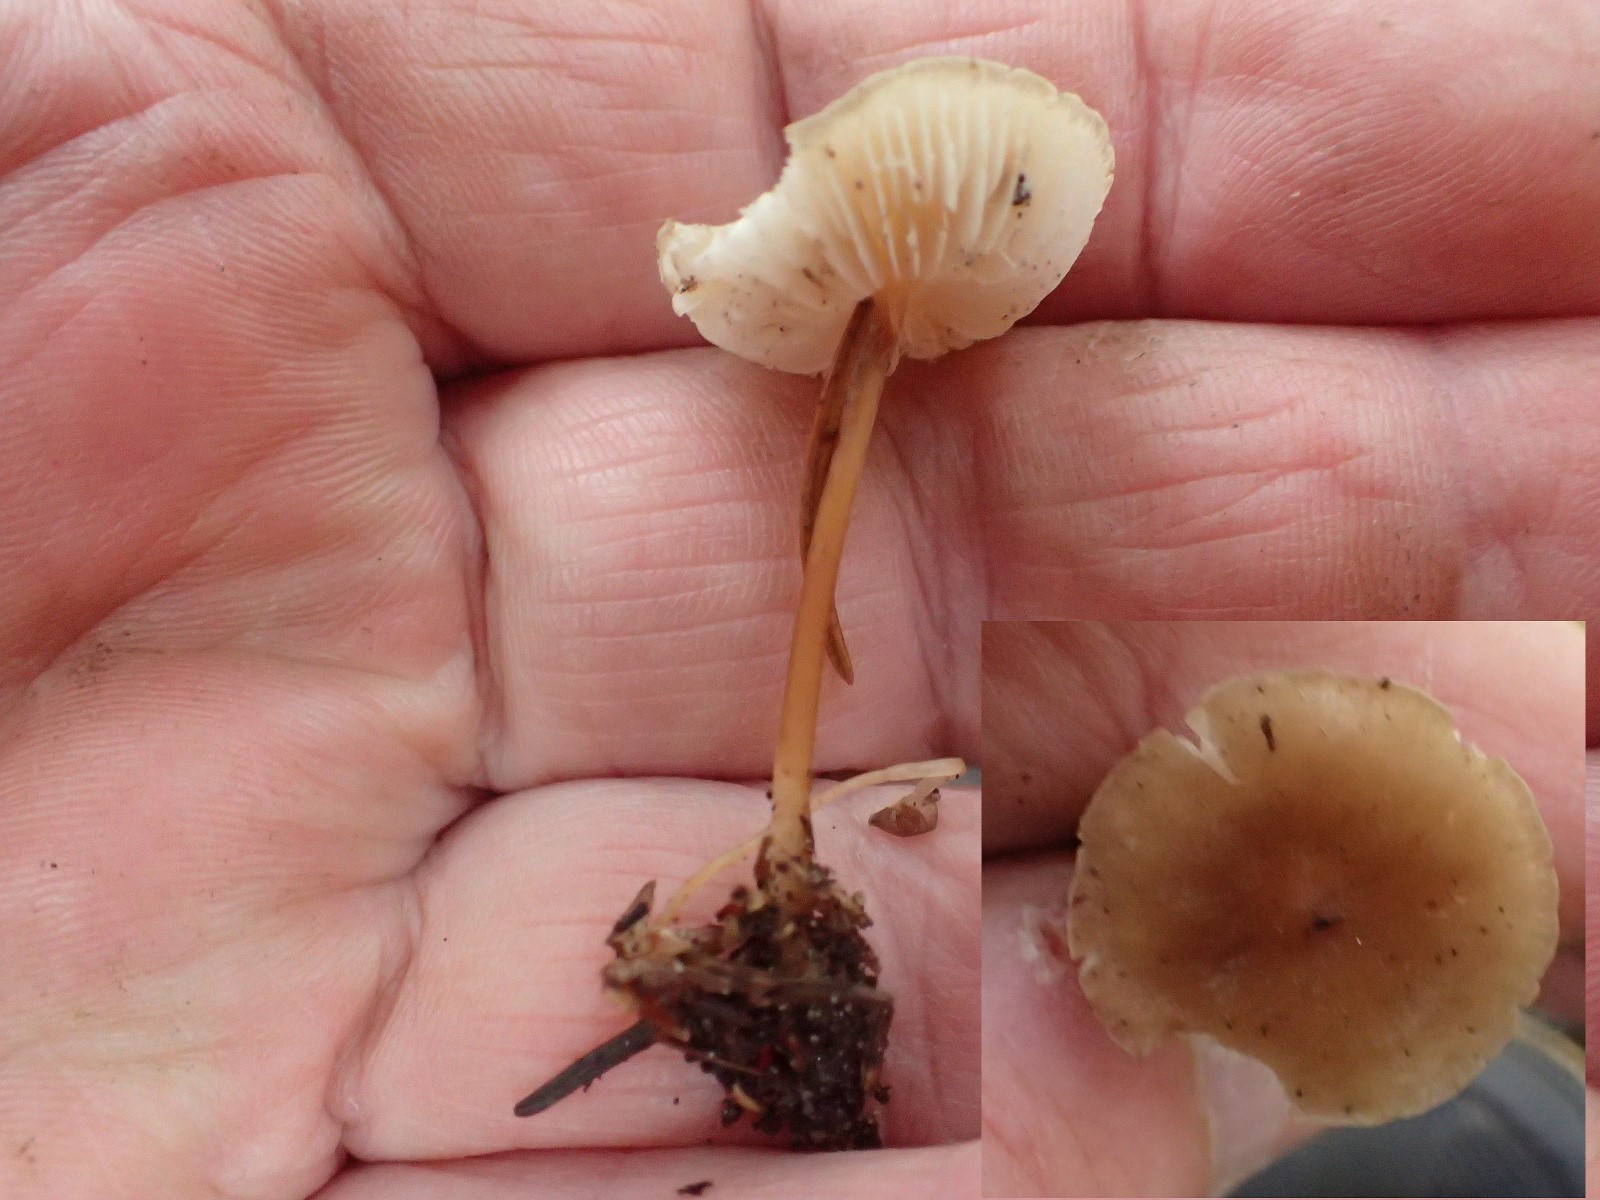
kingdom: Fungi
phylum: Basidiomycota
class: Agaricomycetes
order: Agaricales
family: Tricholomataceae
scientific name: Tricholomataceae
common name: ridderhatfamilien
